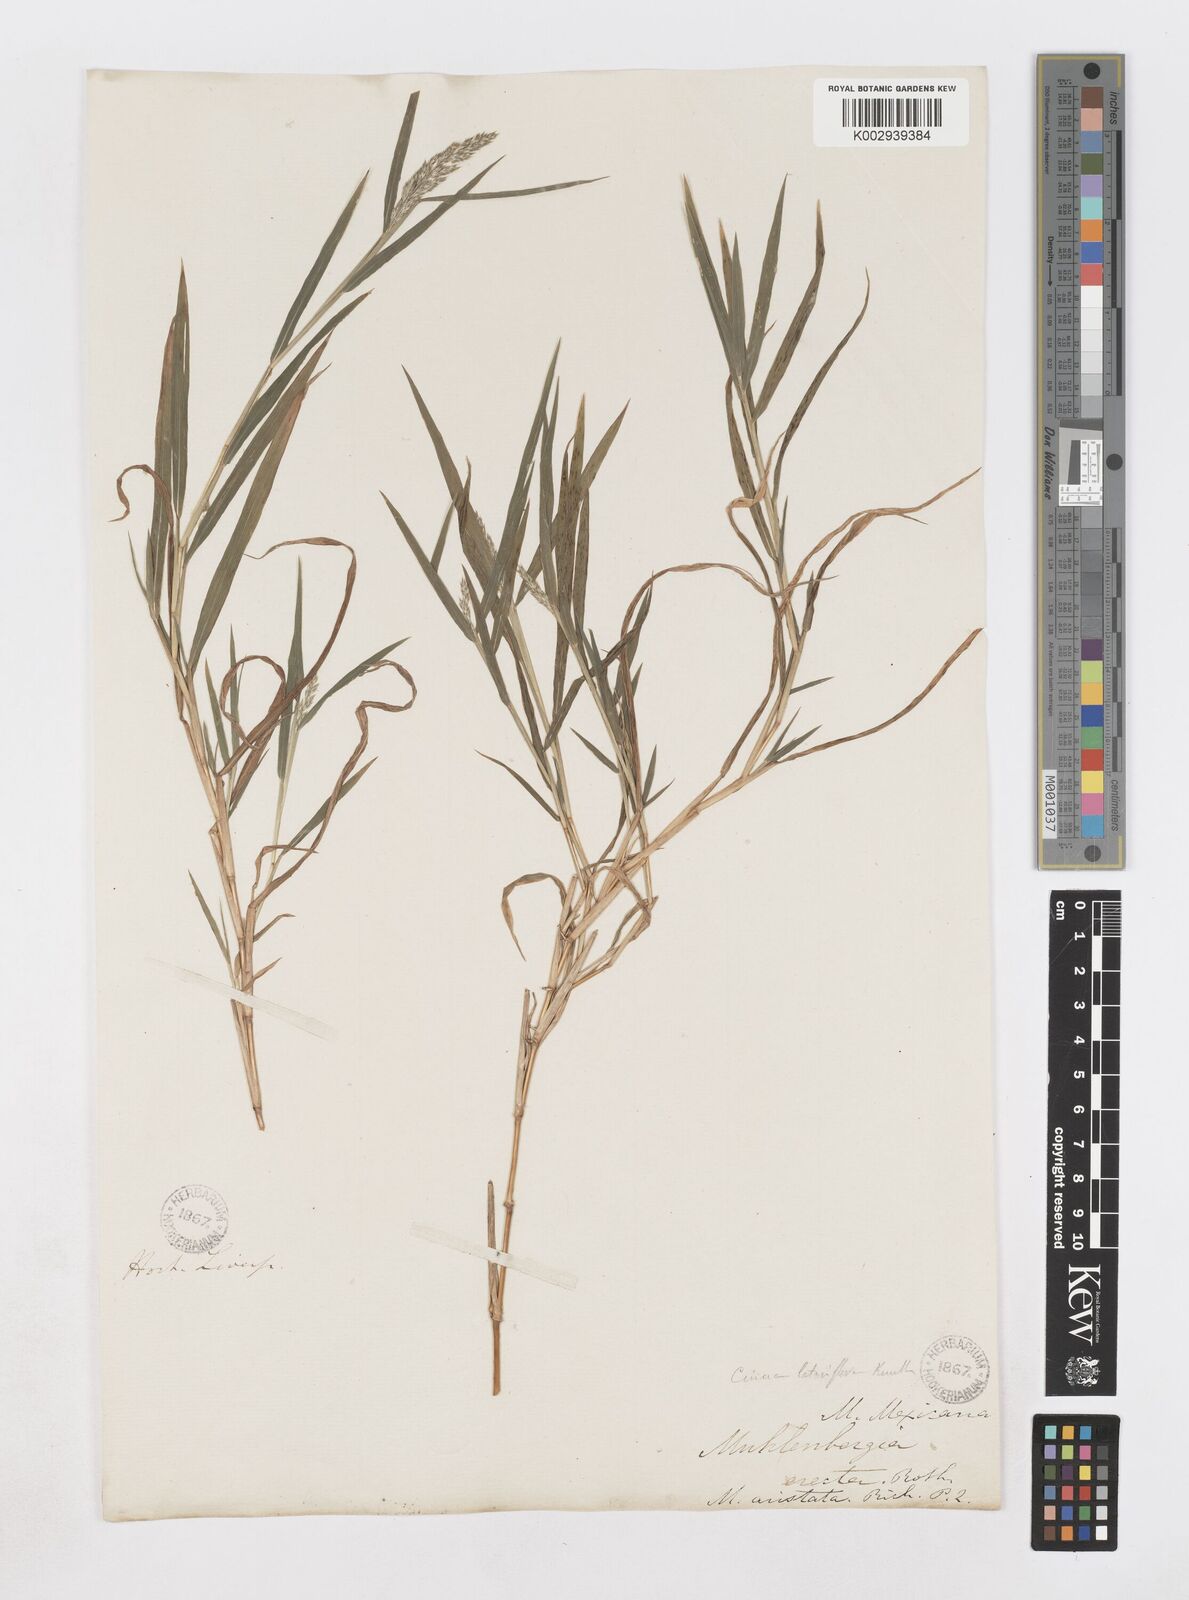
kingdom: Plantae
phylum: Tracheophyta
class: Liliopsida
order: Poales
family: Poaceae
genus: Muhlenbergia
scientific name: Muhlenbergia mexicana
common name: Mexican muhly
